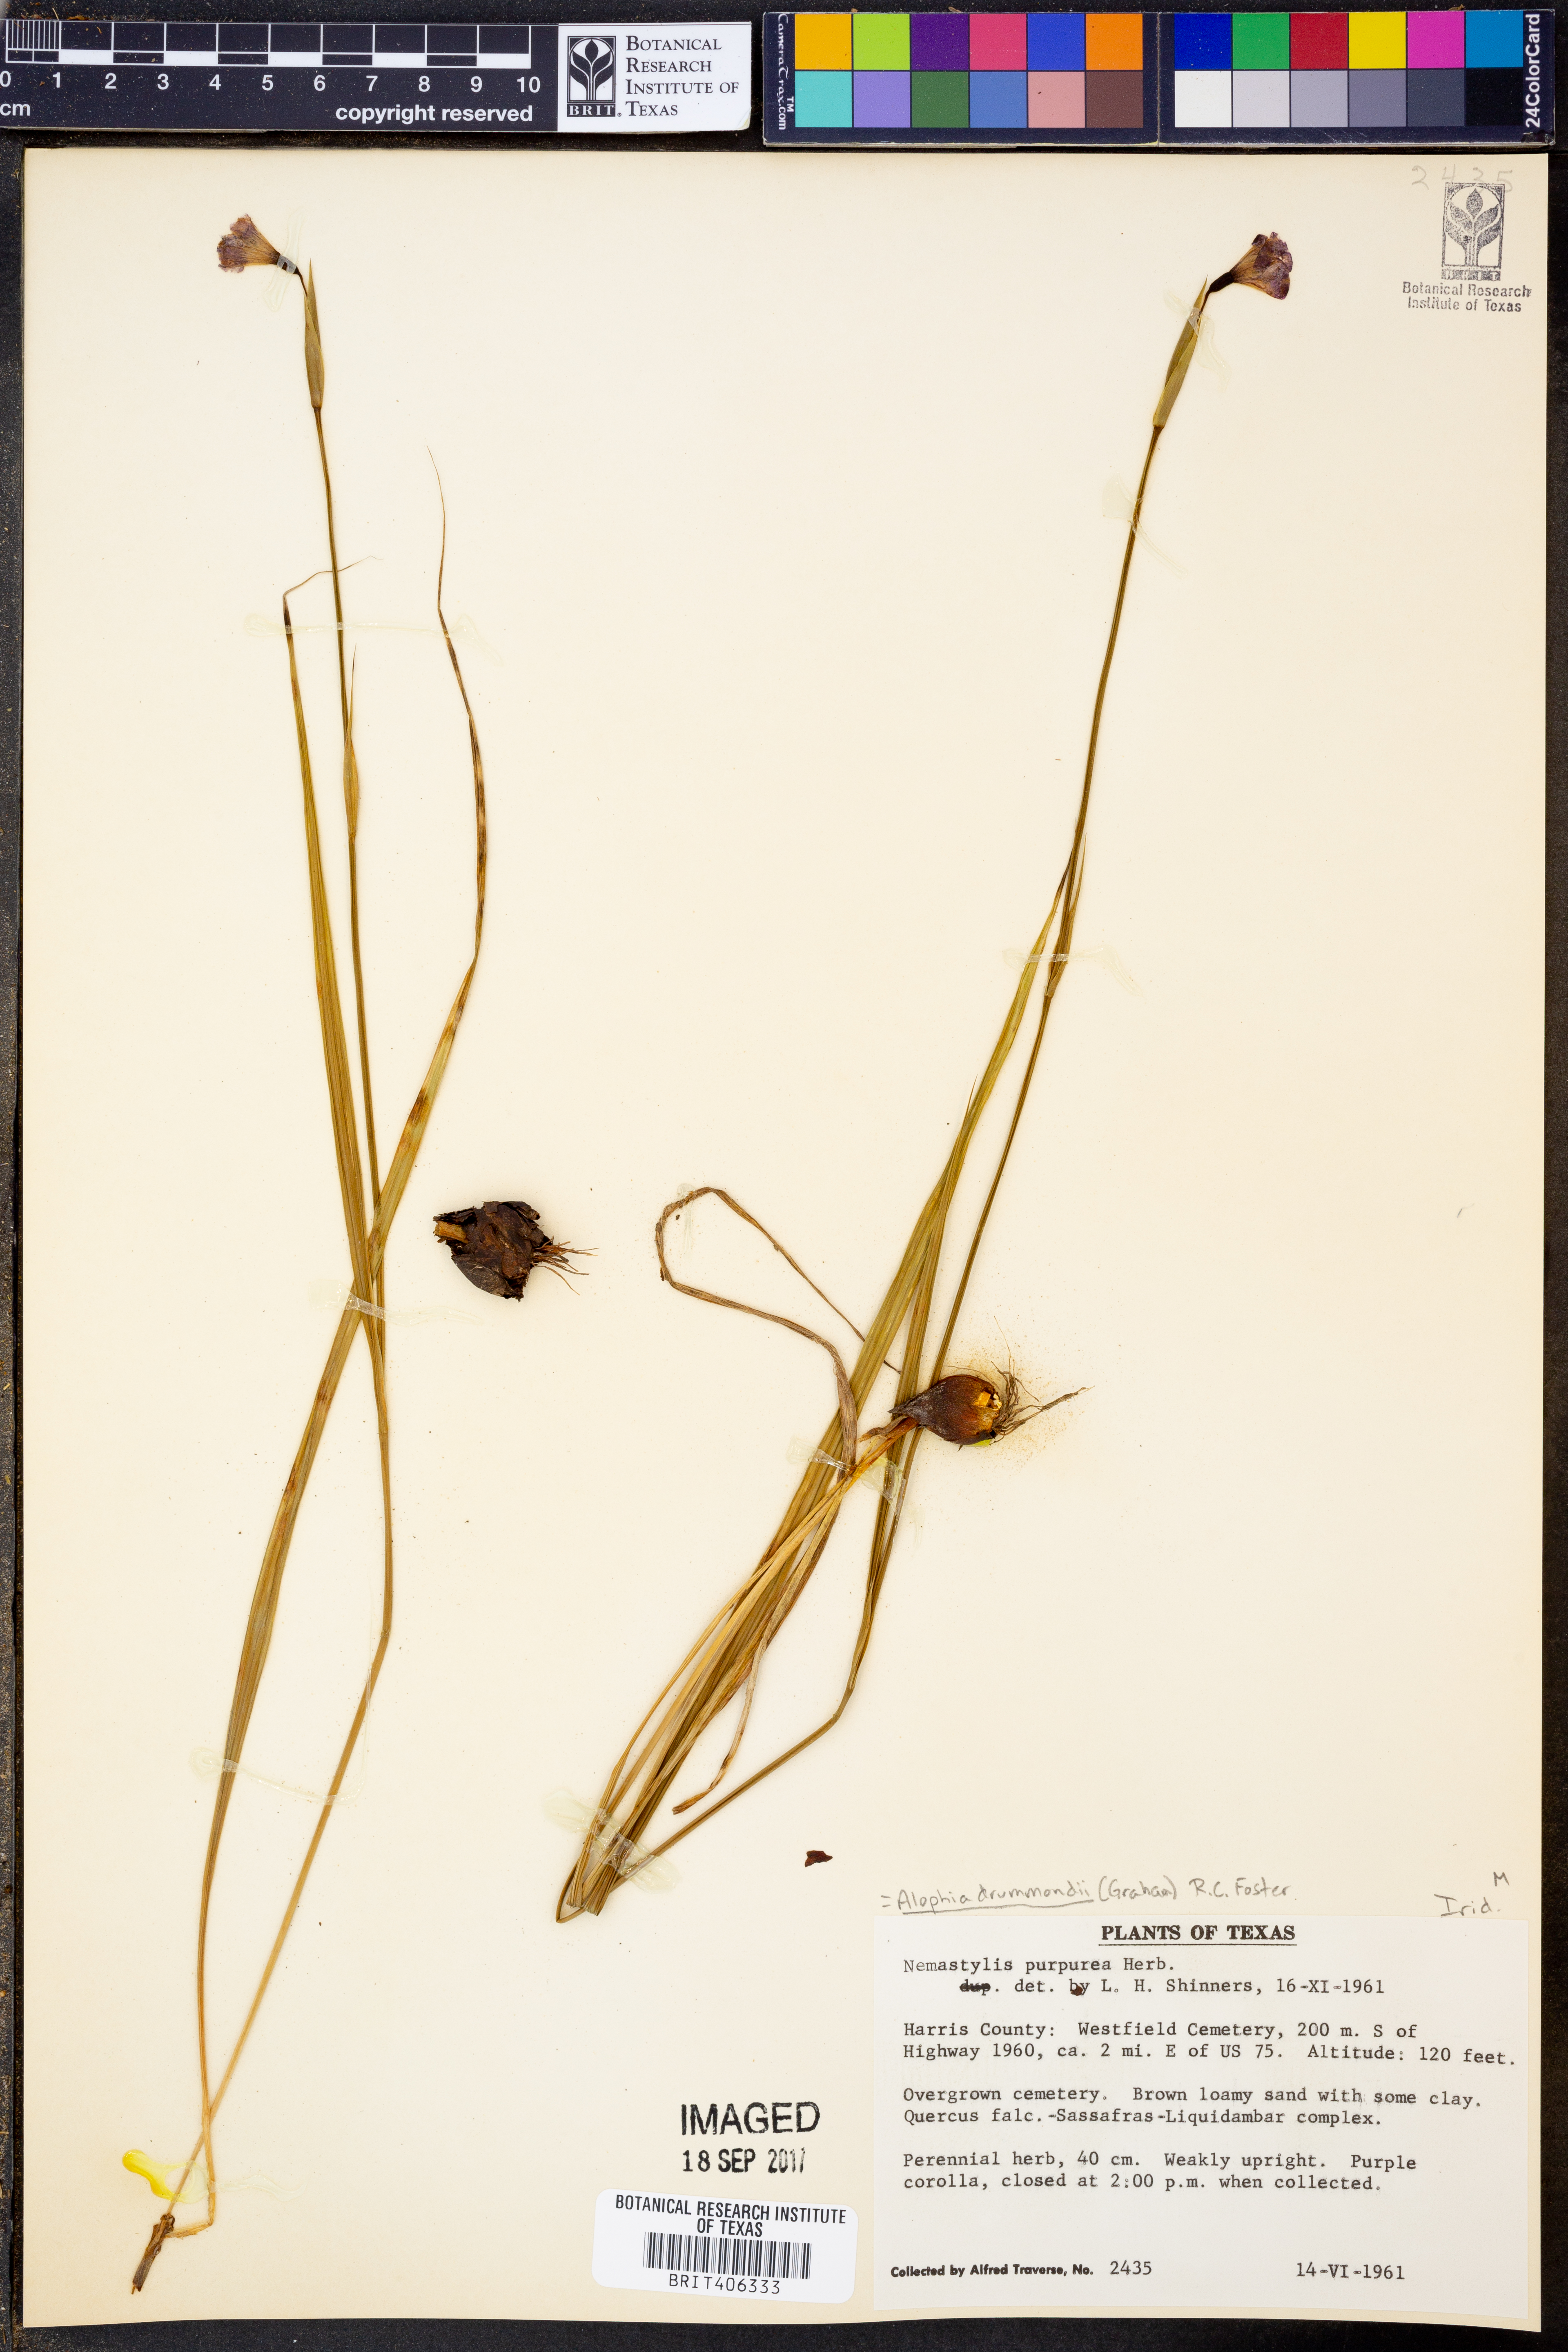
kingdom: Plantae
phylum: Tracheophyta
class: Liliopsida
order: Asparagales
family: Iridaceae
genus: Alophia
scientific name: Alophia drummondii
